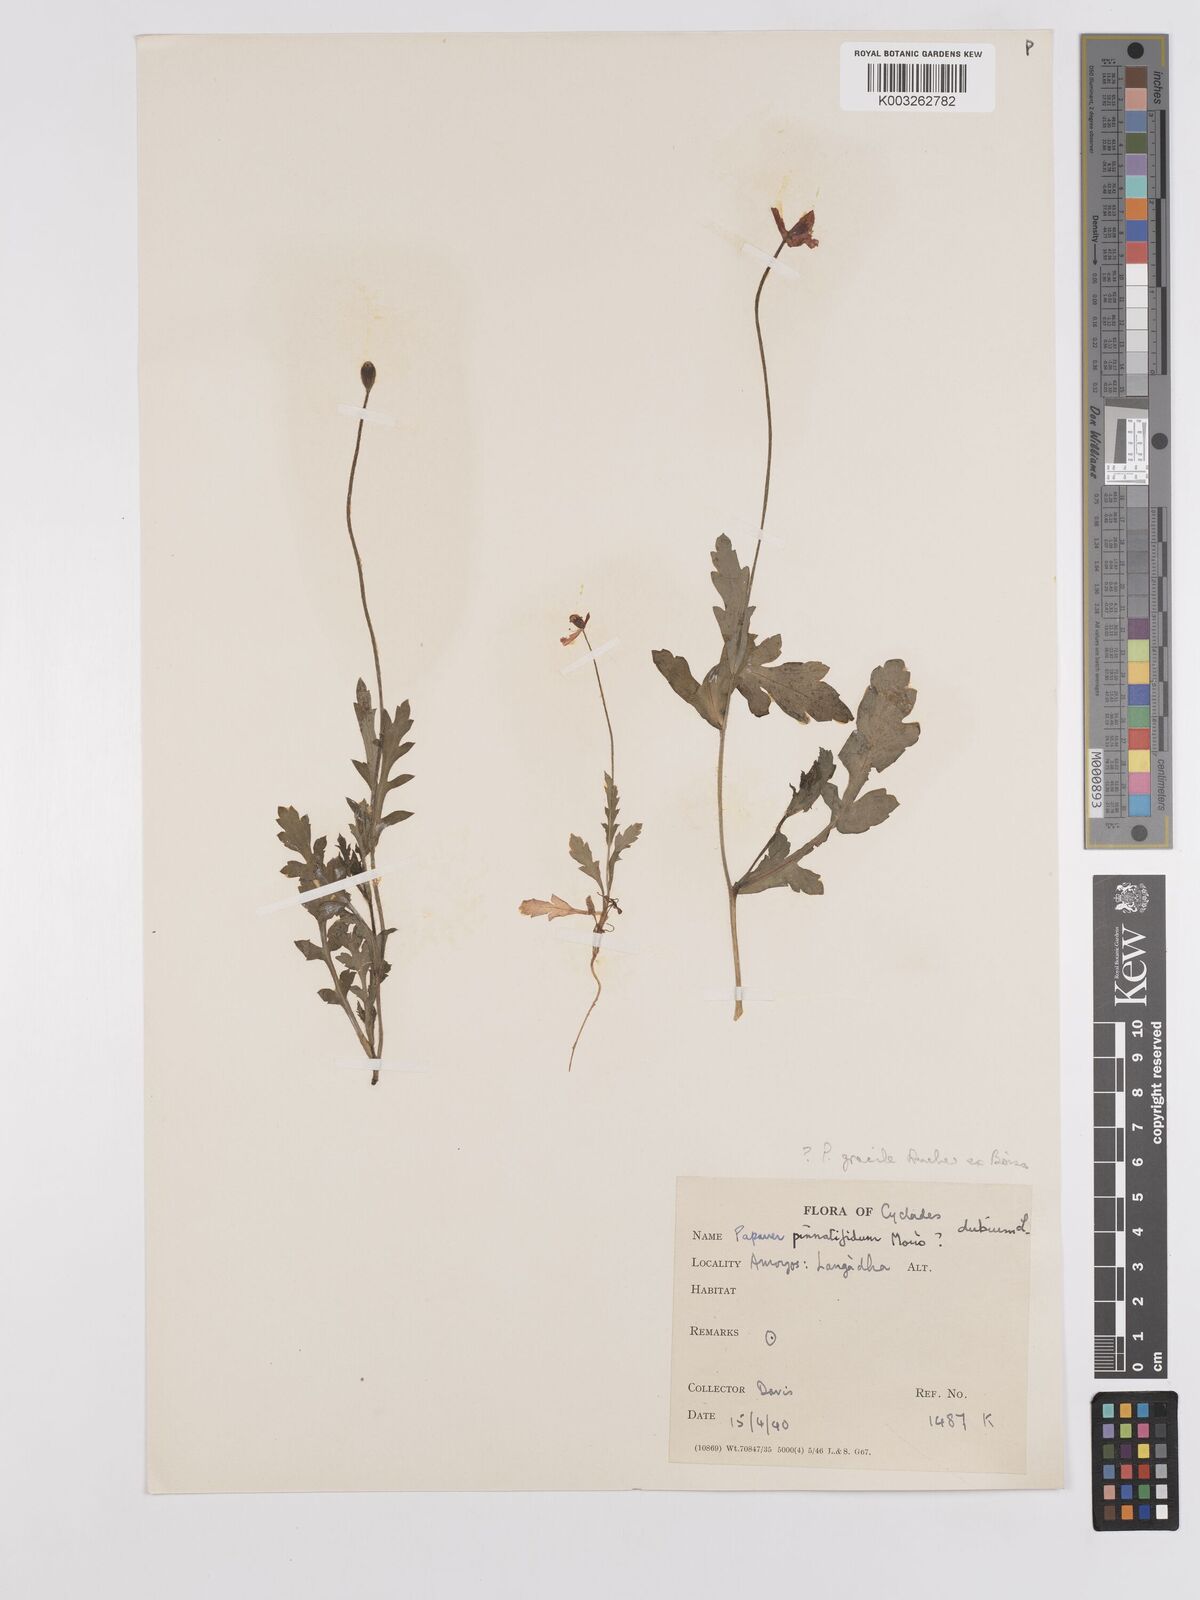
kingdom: Plantae
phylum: Tracheophyta
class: Magnoliopsida
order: Ranunculales
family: Papaveraceae
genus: Papaver
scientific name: Papaver pinnatifidum
